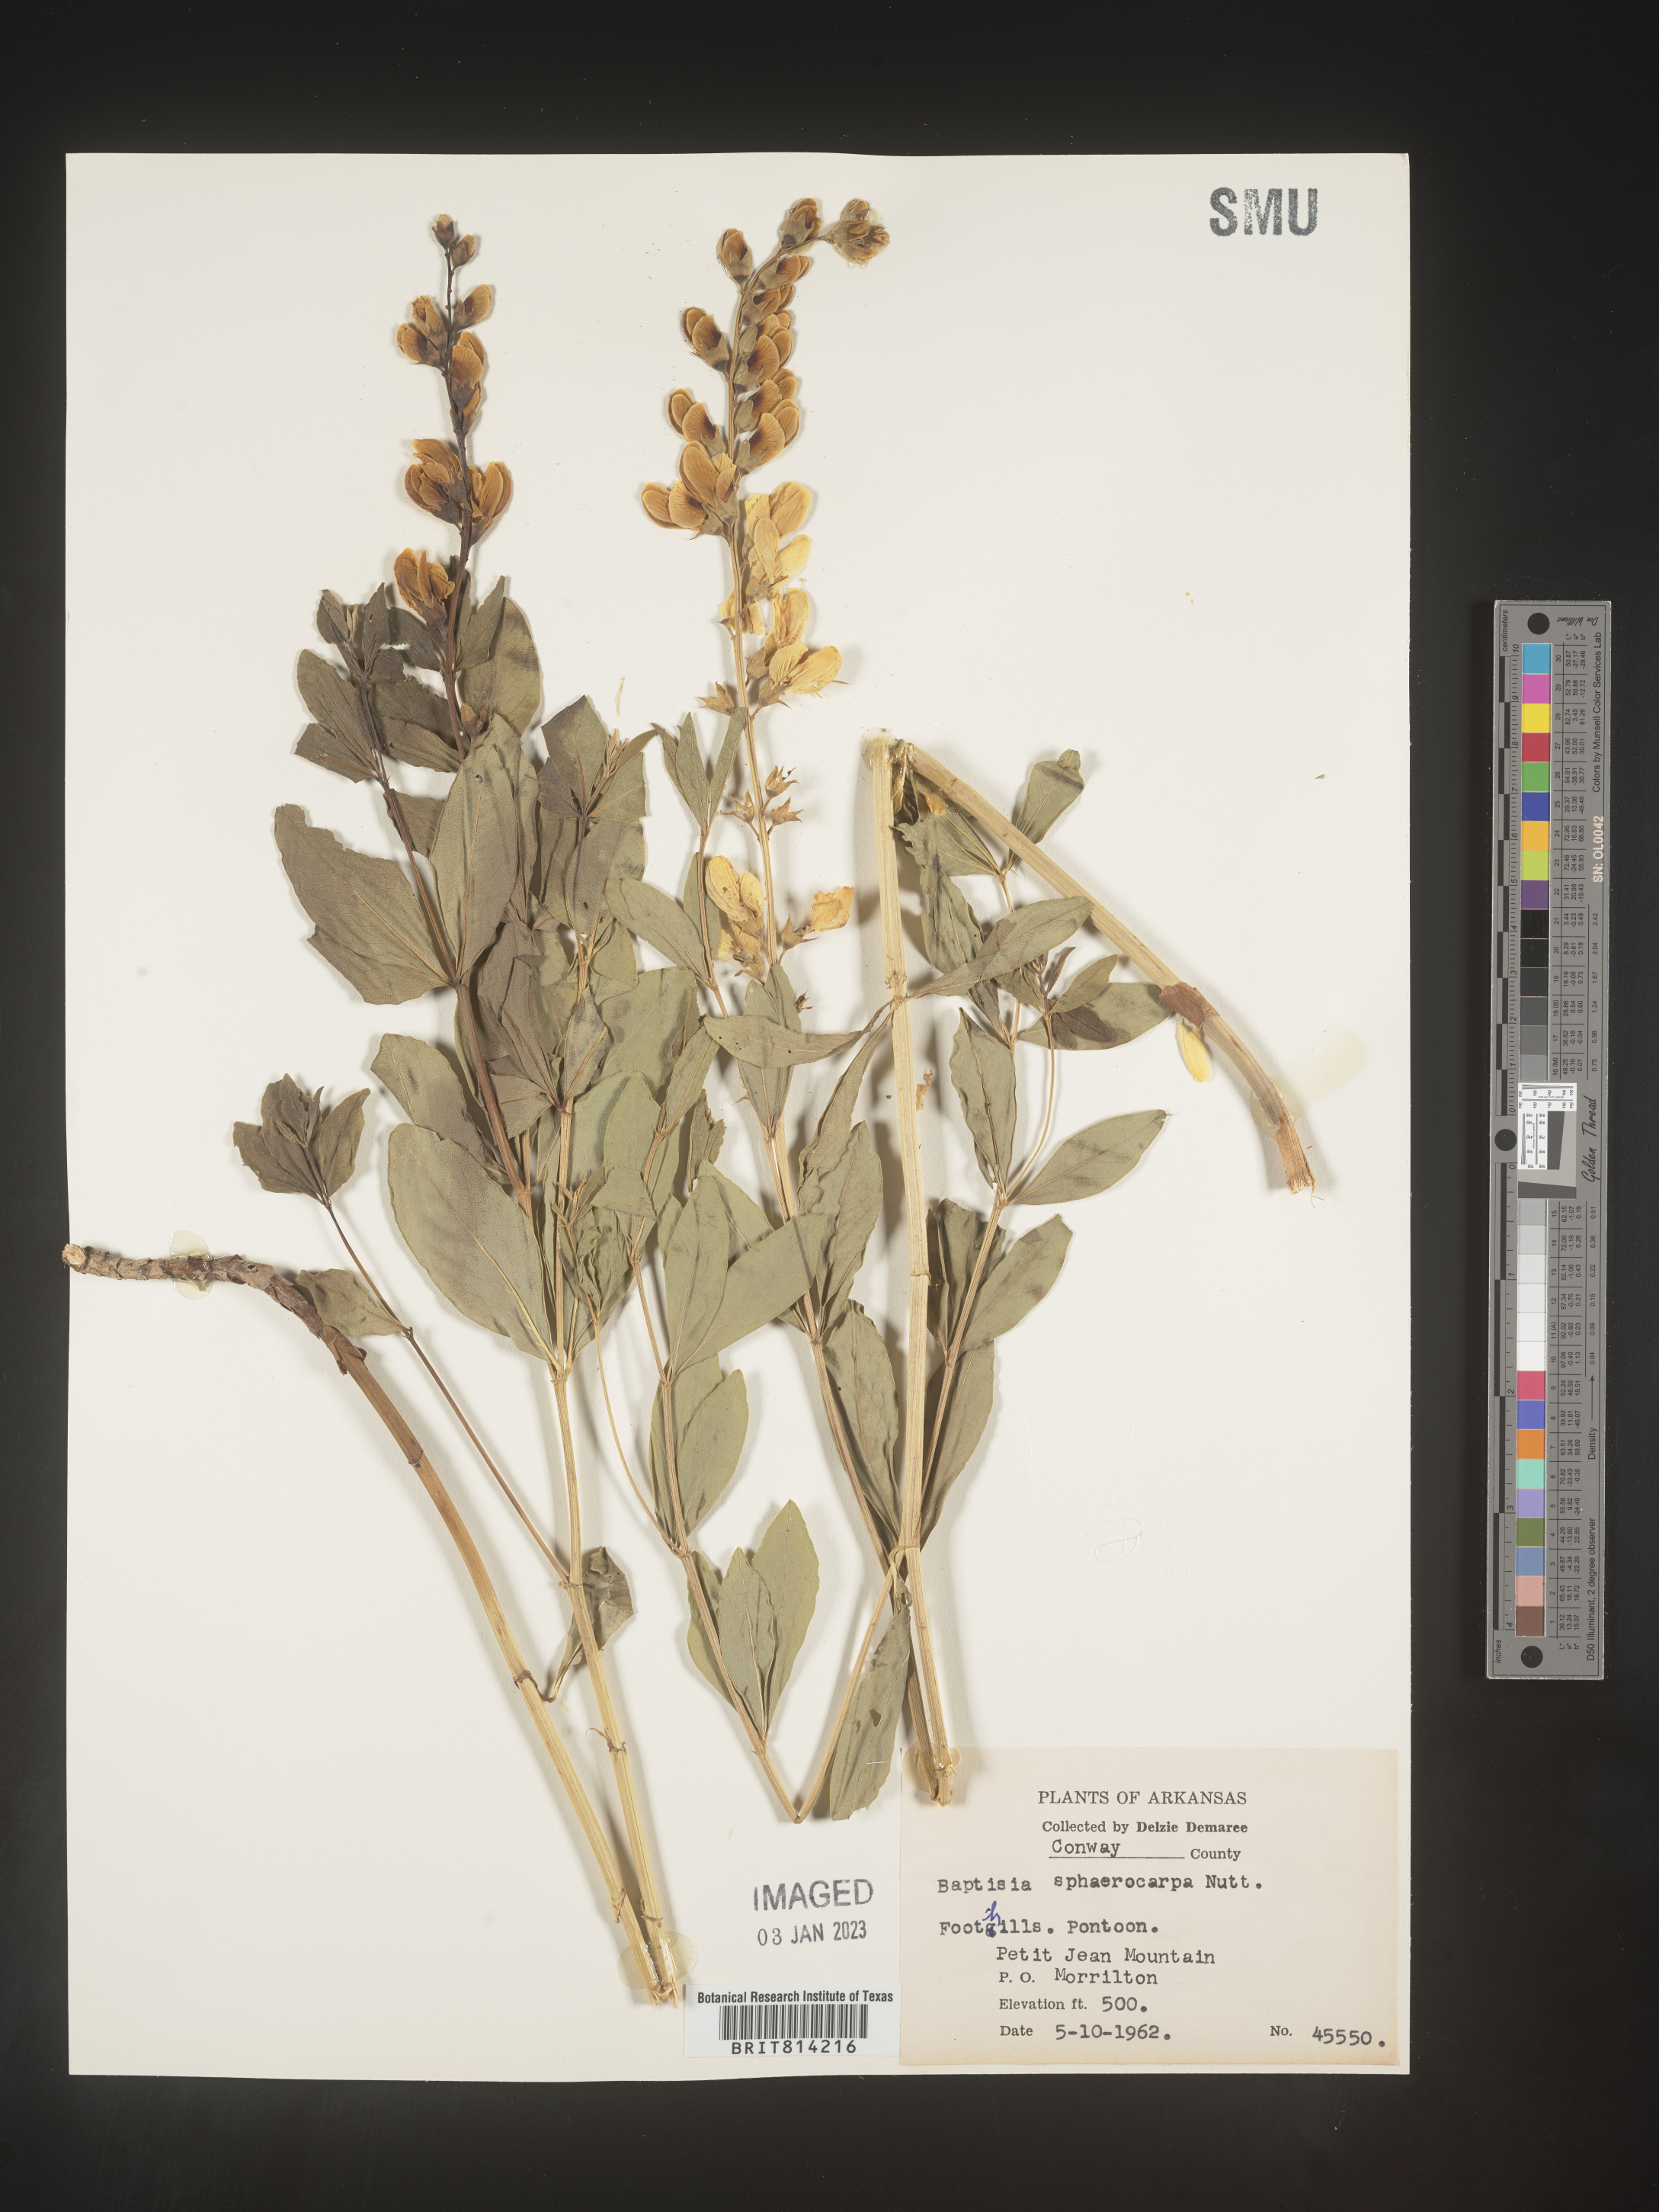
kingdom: Plantae
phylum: Tracheophyta
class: Magnoliopsida
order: Fabales
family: Fabaceae
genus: Baptisia
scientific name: Baptisia sphaerocarpa
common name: Round wild indigo
